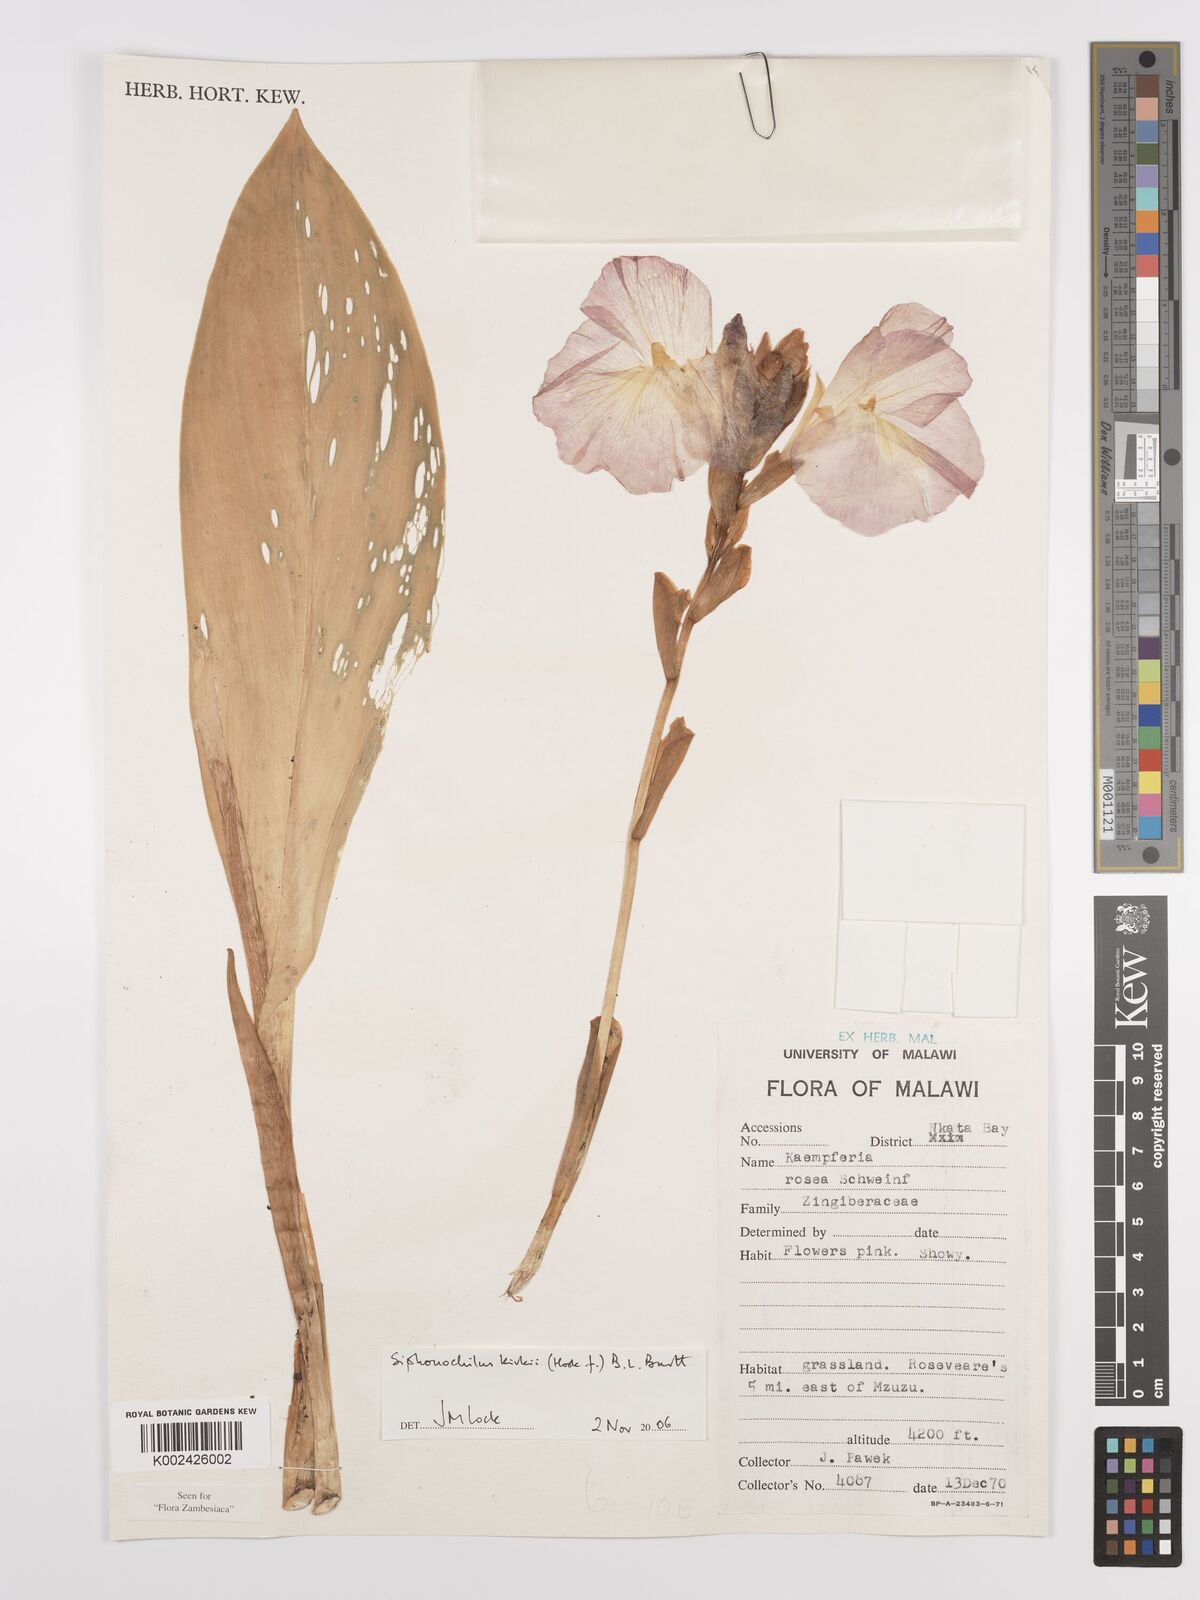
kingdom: Plantae
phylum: Tracheophyta
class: Liliopsida
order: Zingiberales
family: Zingiberaceae
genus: Siphonochilus
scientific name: Siphonochilus kirkii
